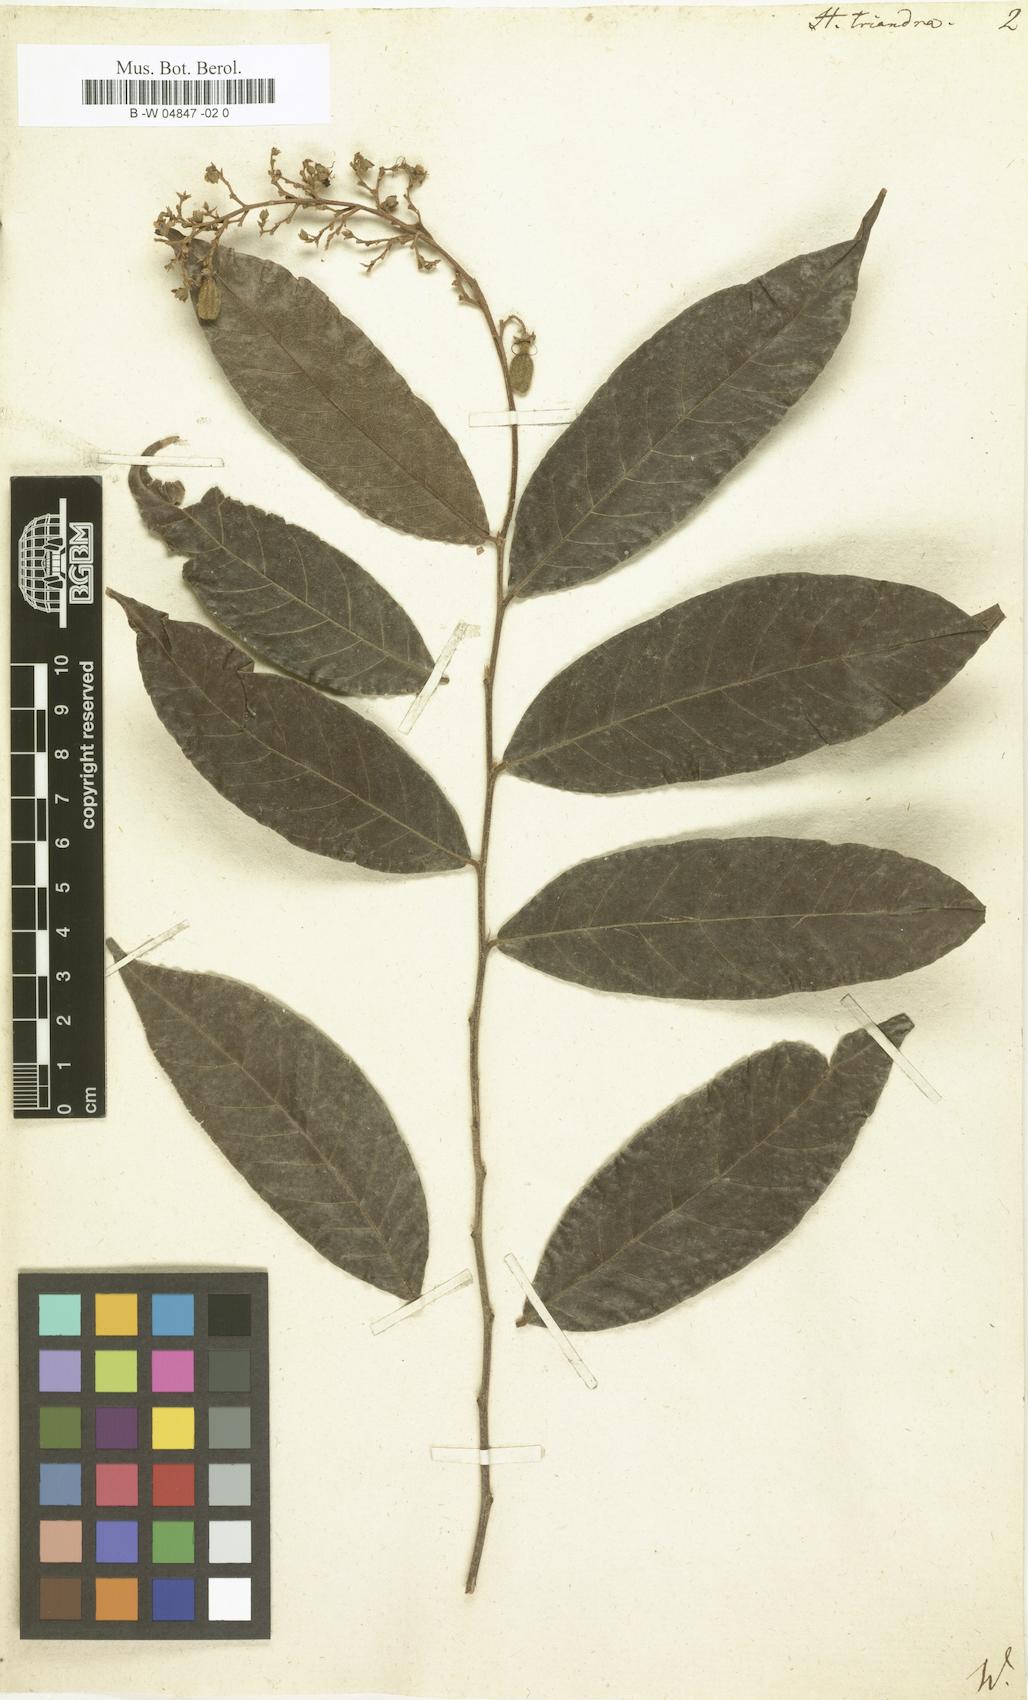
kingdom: Plantae
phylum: Tracheophyta
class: Magnoliopsida
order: Malpighiales
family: Chrysobalanaceae
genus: Hirtella
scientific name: Hirtella triandra
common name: Hairy plum
